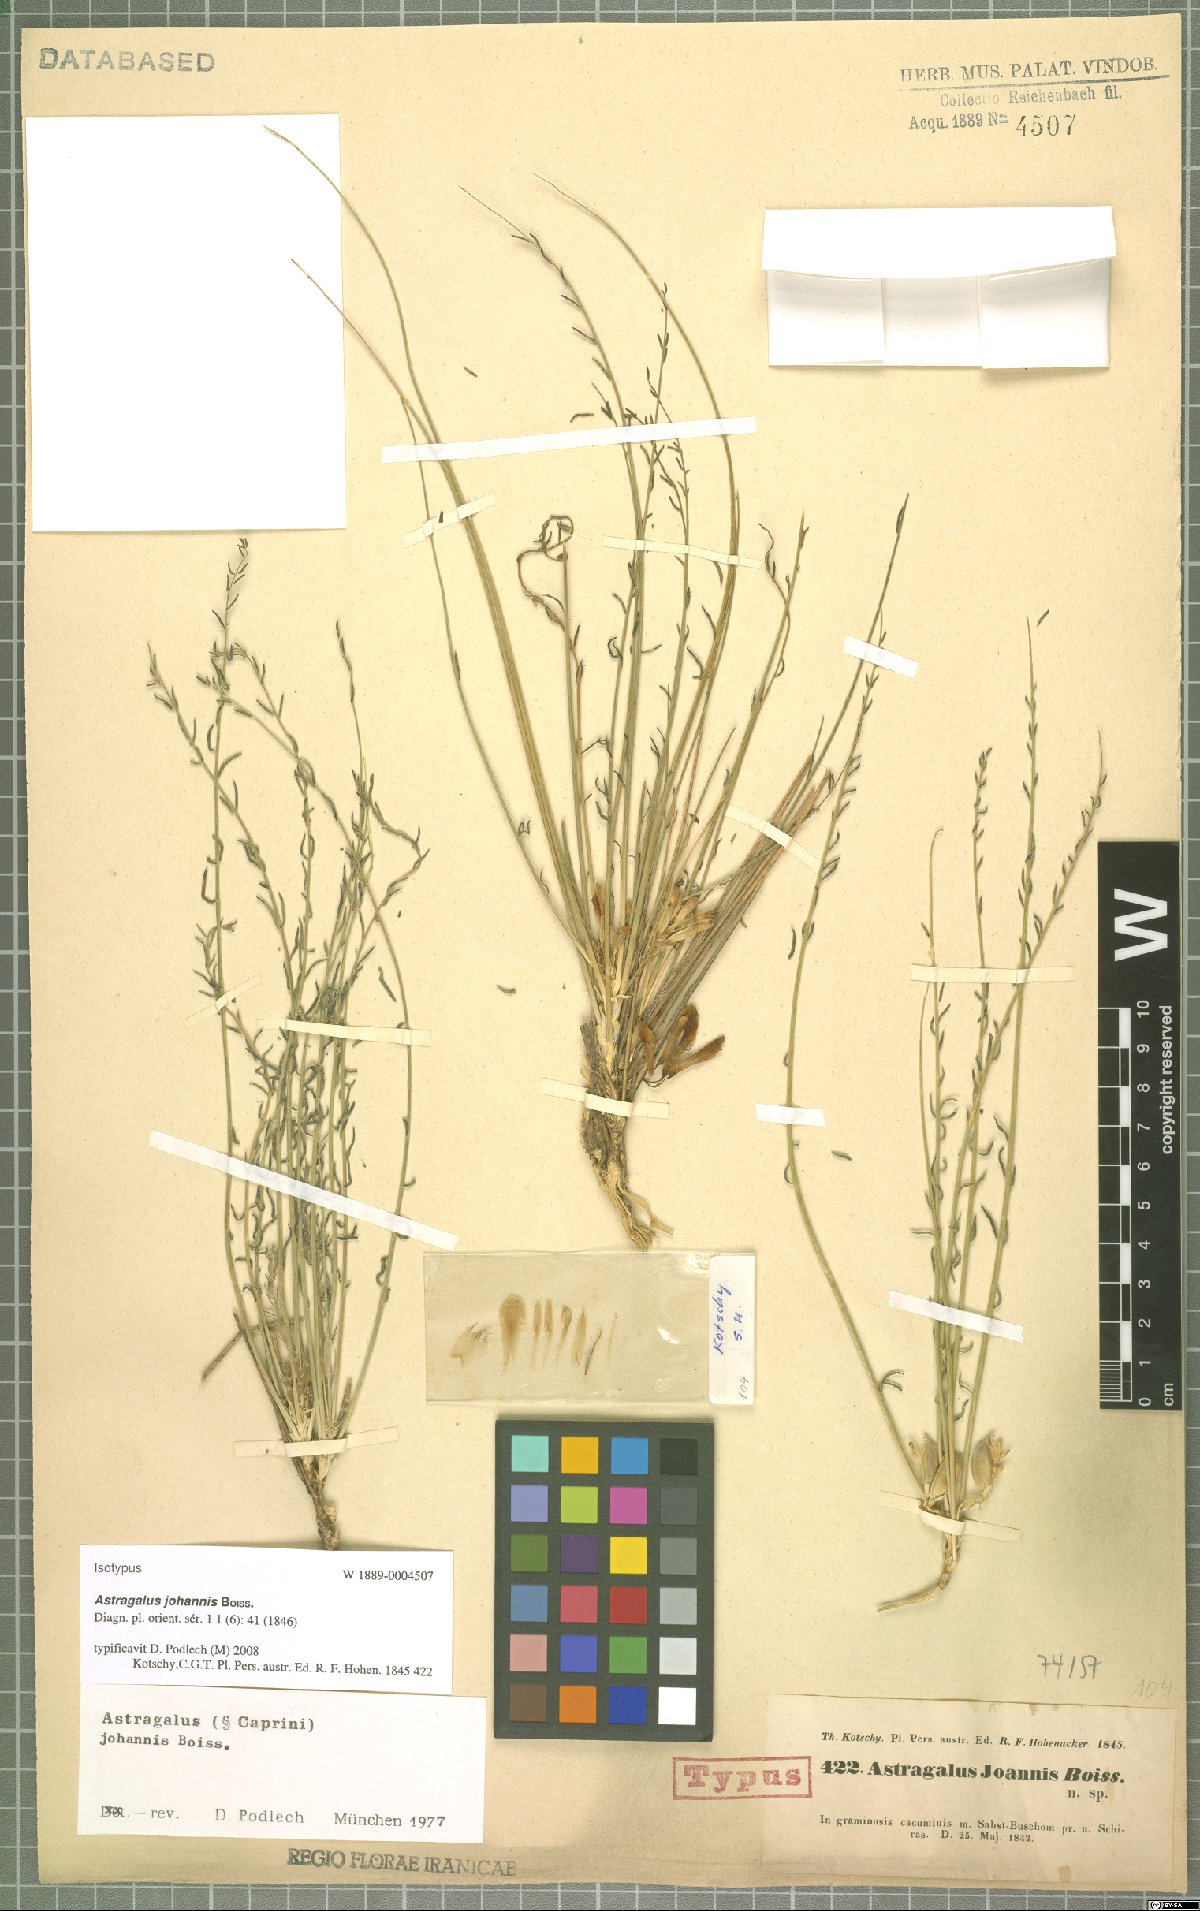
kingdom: Plantae
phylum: Tracheophyta
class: Magnoliopsida
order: Fabales
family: Fabaceae
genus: Astragalus
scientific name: Astragalus johannis
